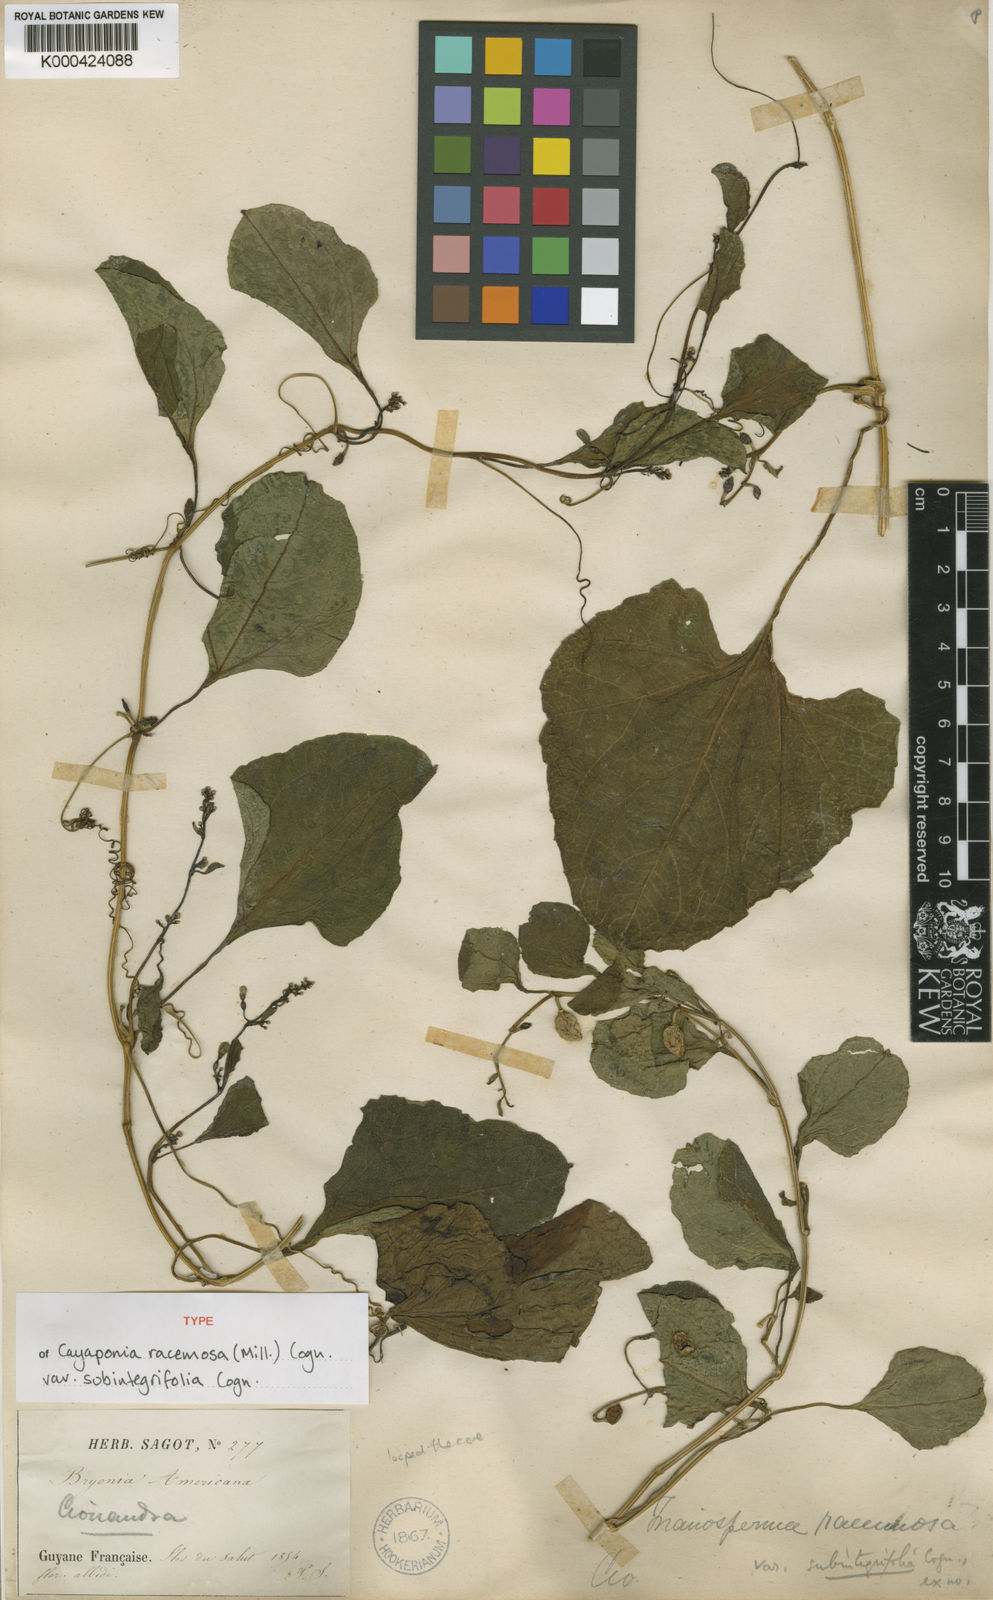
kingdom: Plantae
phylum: Tracheophyta
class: Magnoliopsida
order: Cucurbitales
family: Cucurbitaceae
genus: Cayaponia
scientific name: Cayaponia racemosa
